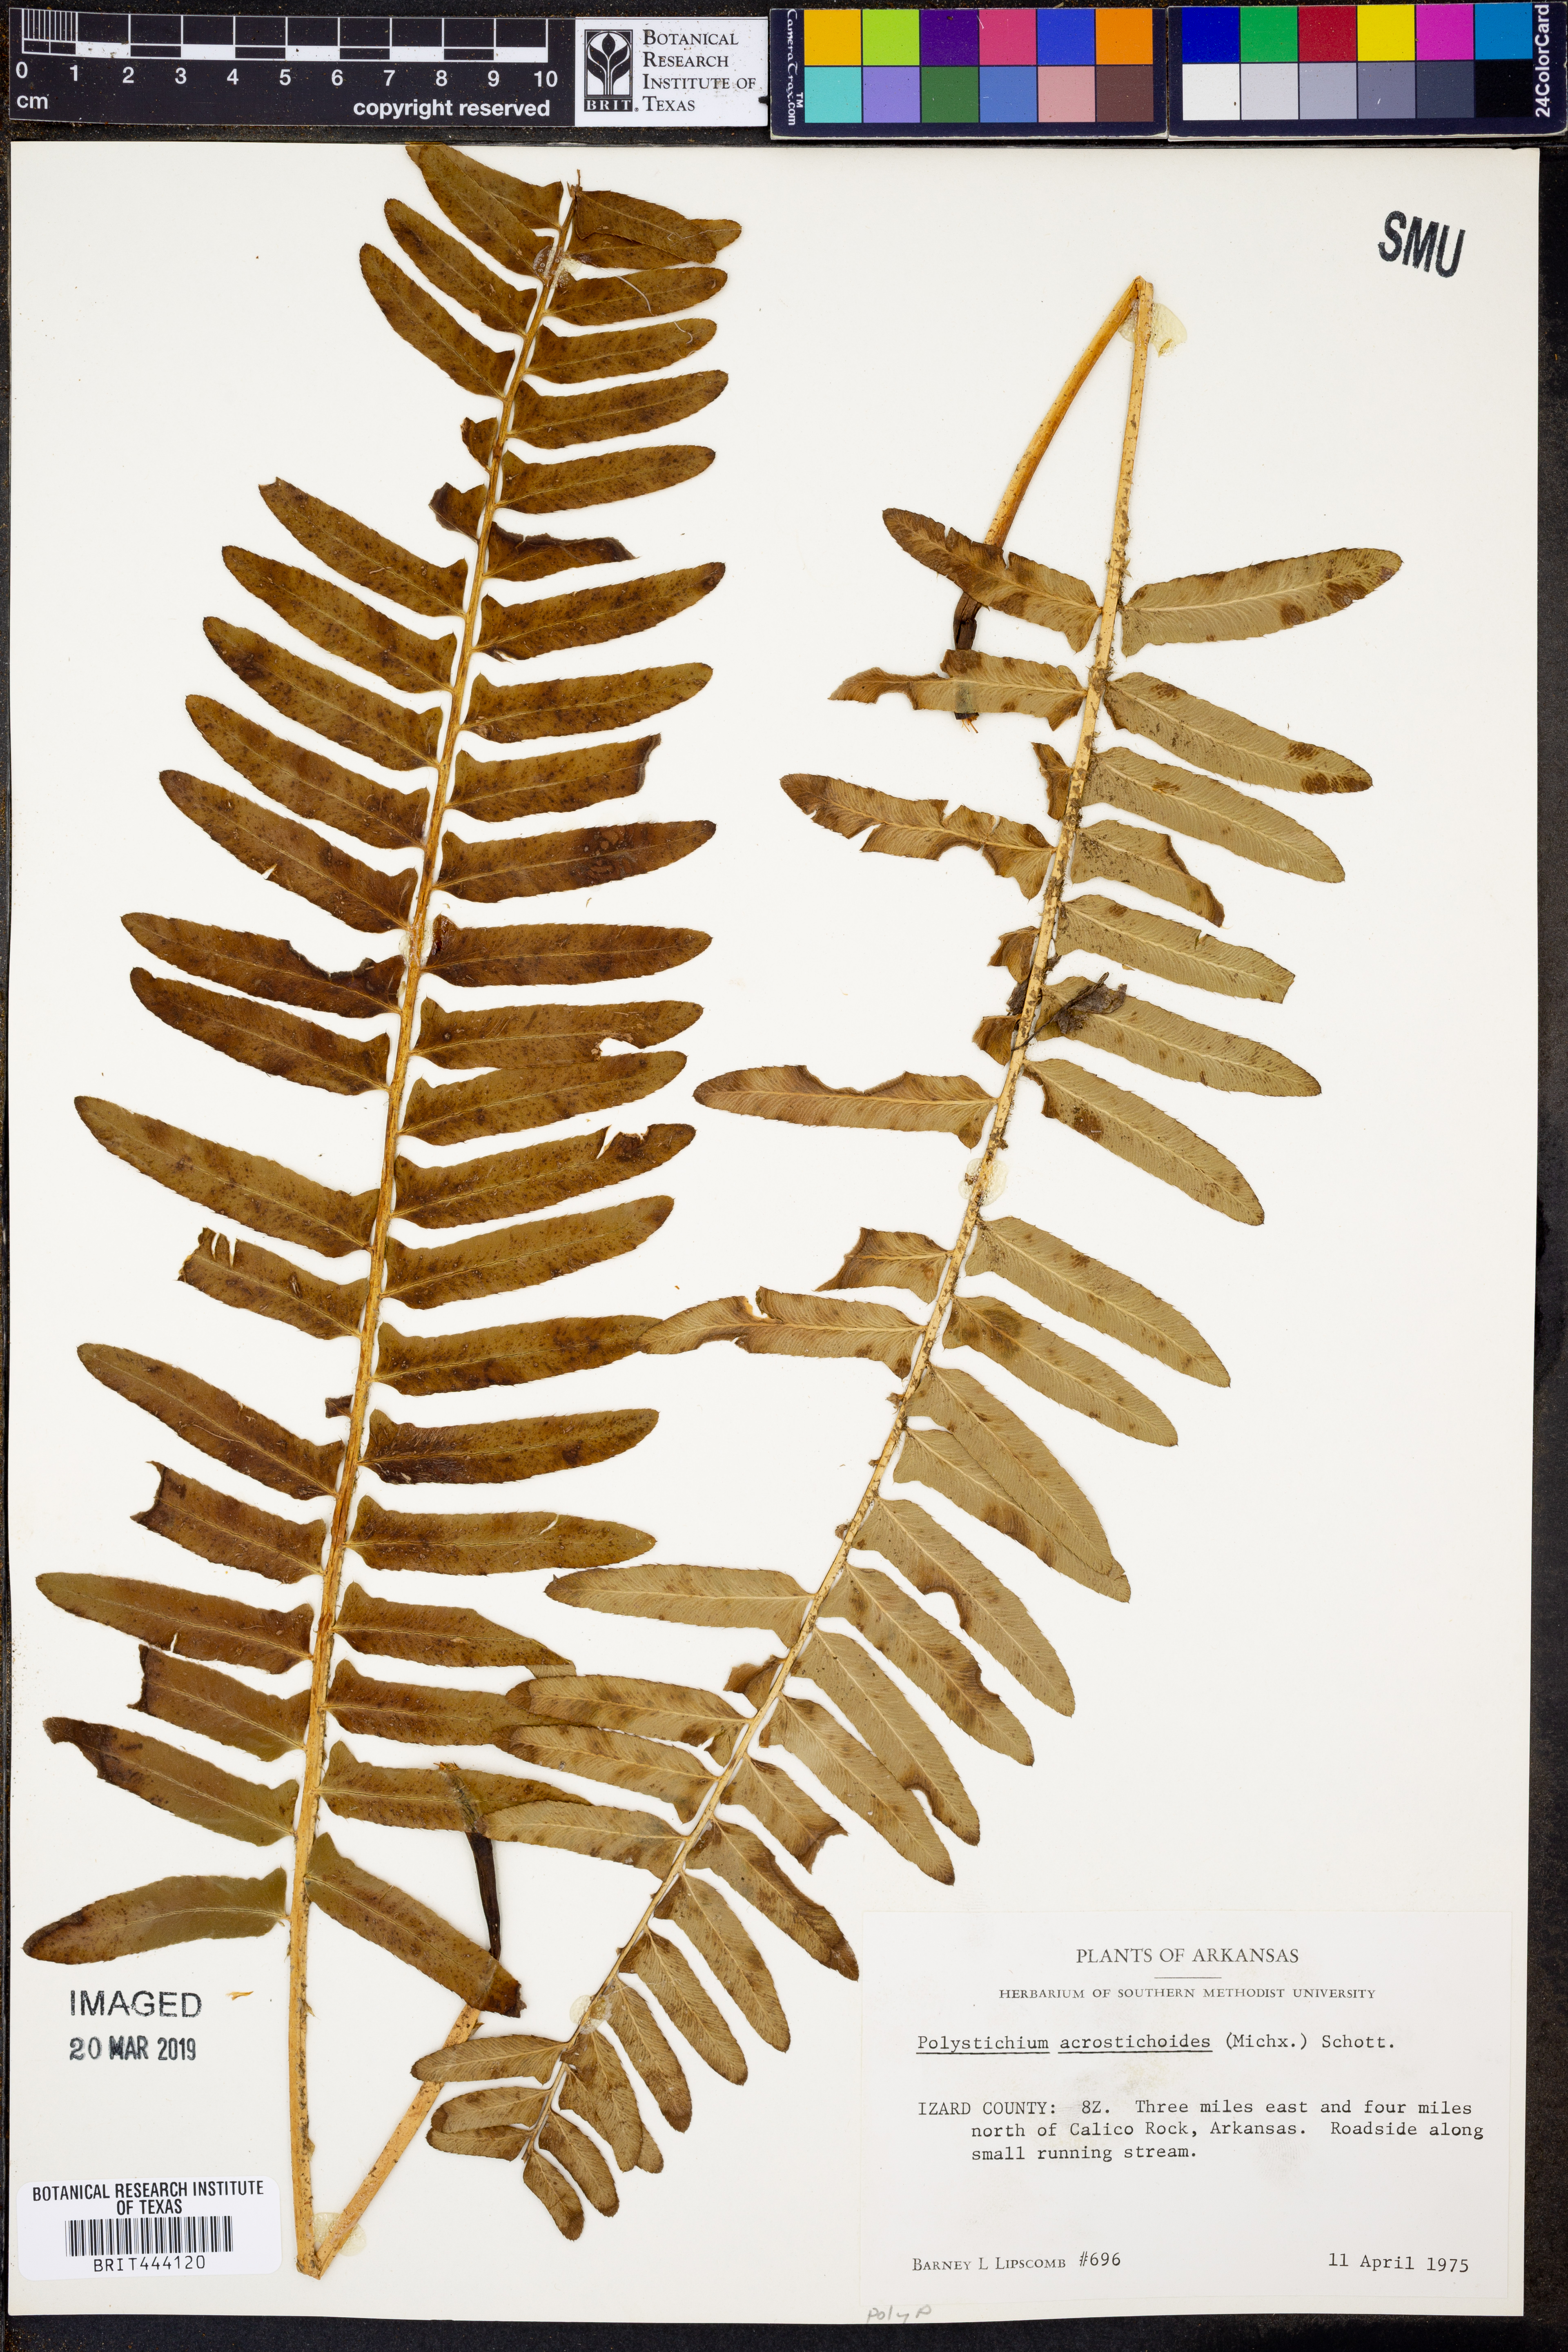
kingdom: Plantae
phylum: Tracheophyta
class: Polypodiopsida
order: Polypodiales
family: Dryopteridaceae
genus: Polystichum
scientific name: Polystichum acrostichoides
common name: Christmas fern
